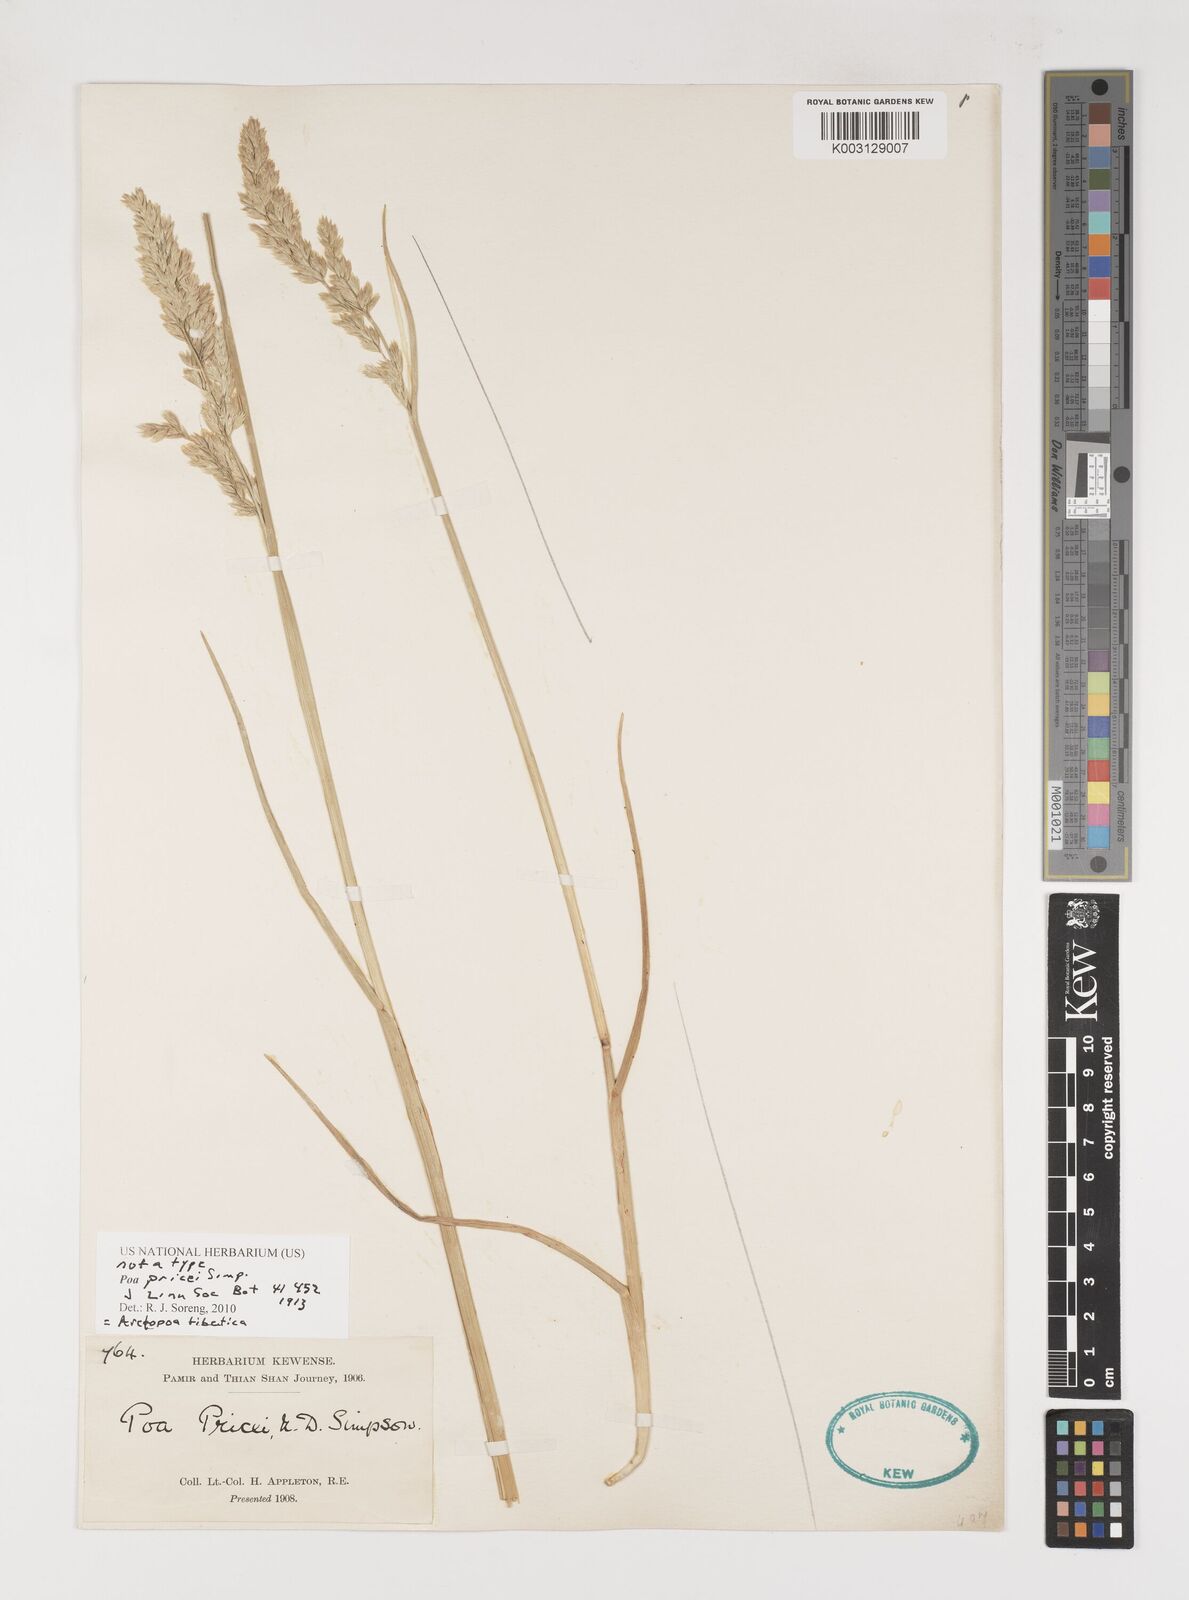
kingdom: Plantae
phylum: Tracheophyta
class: Liliopsida
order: Poales
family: Poaceae
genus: Arctopoa
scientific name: Arctopoa tibetica
